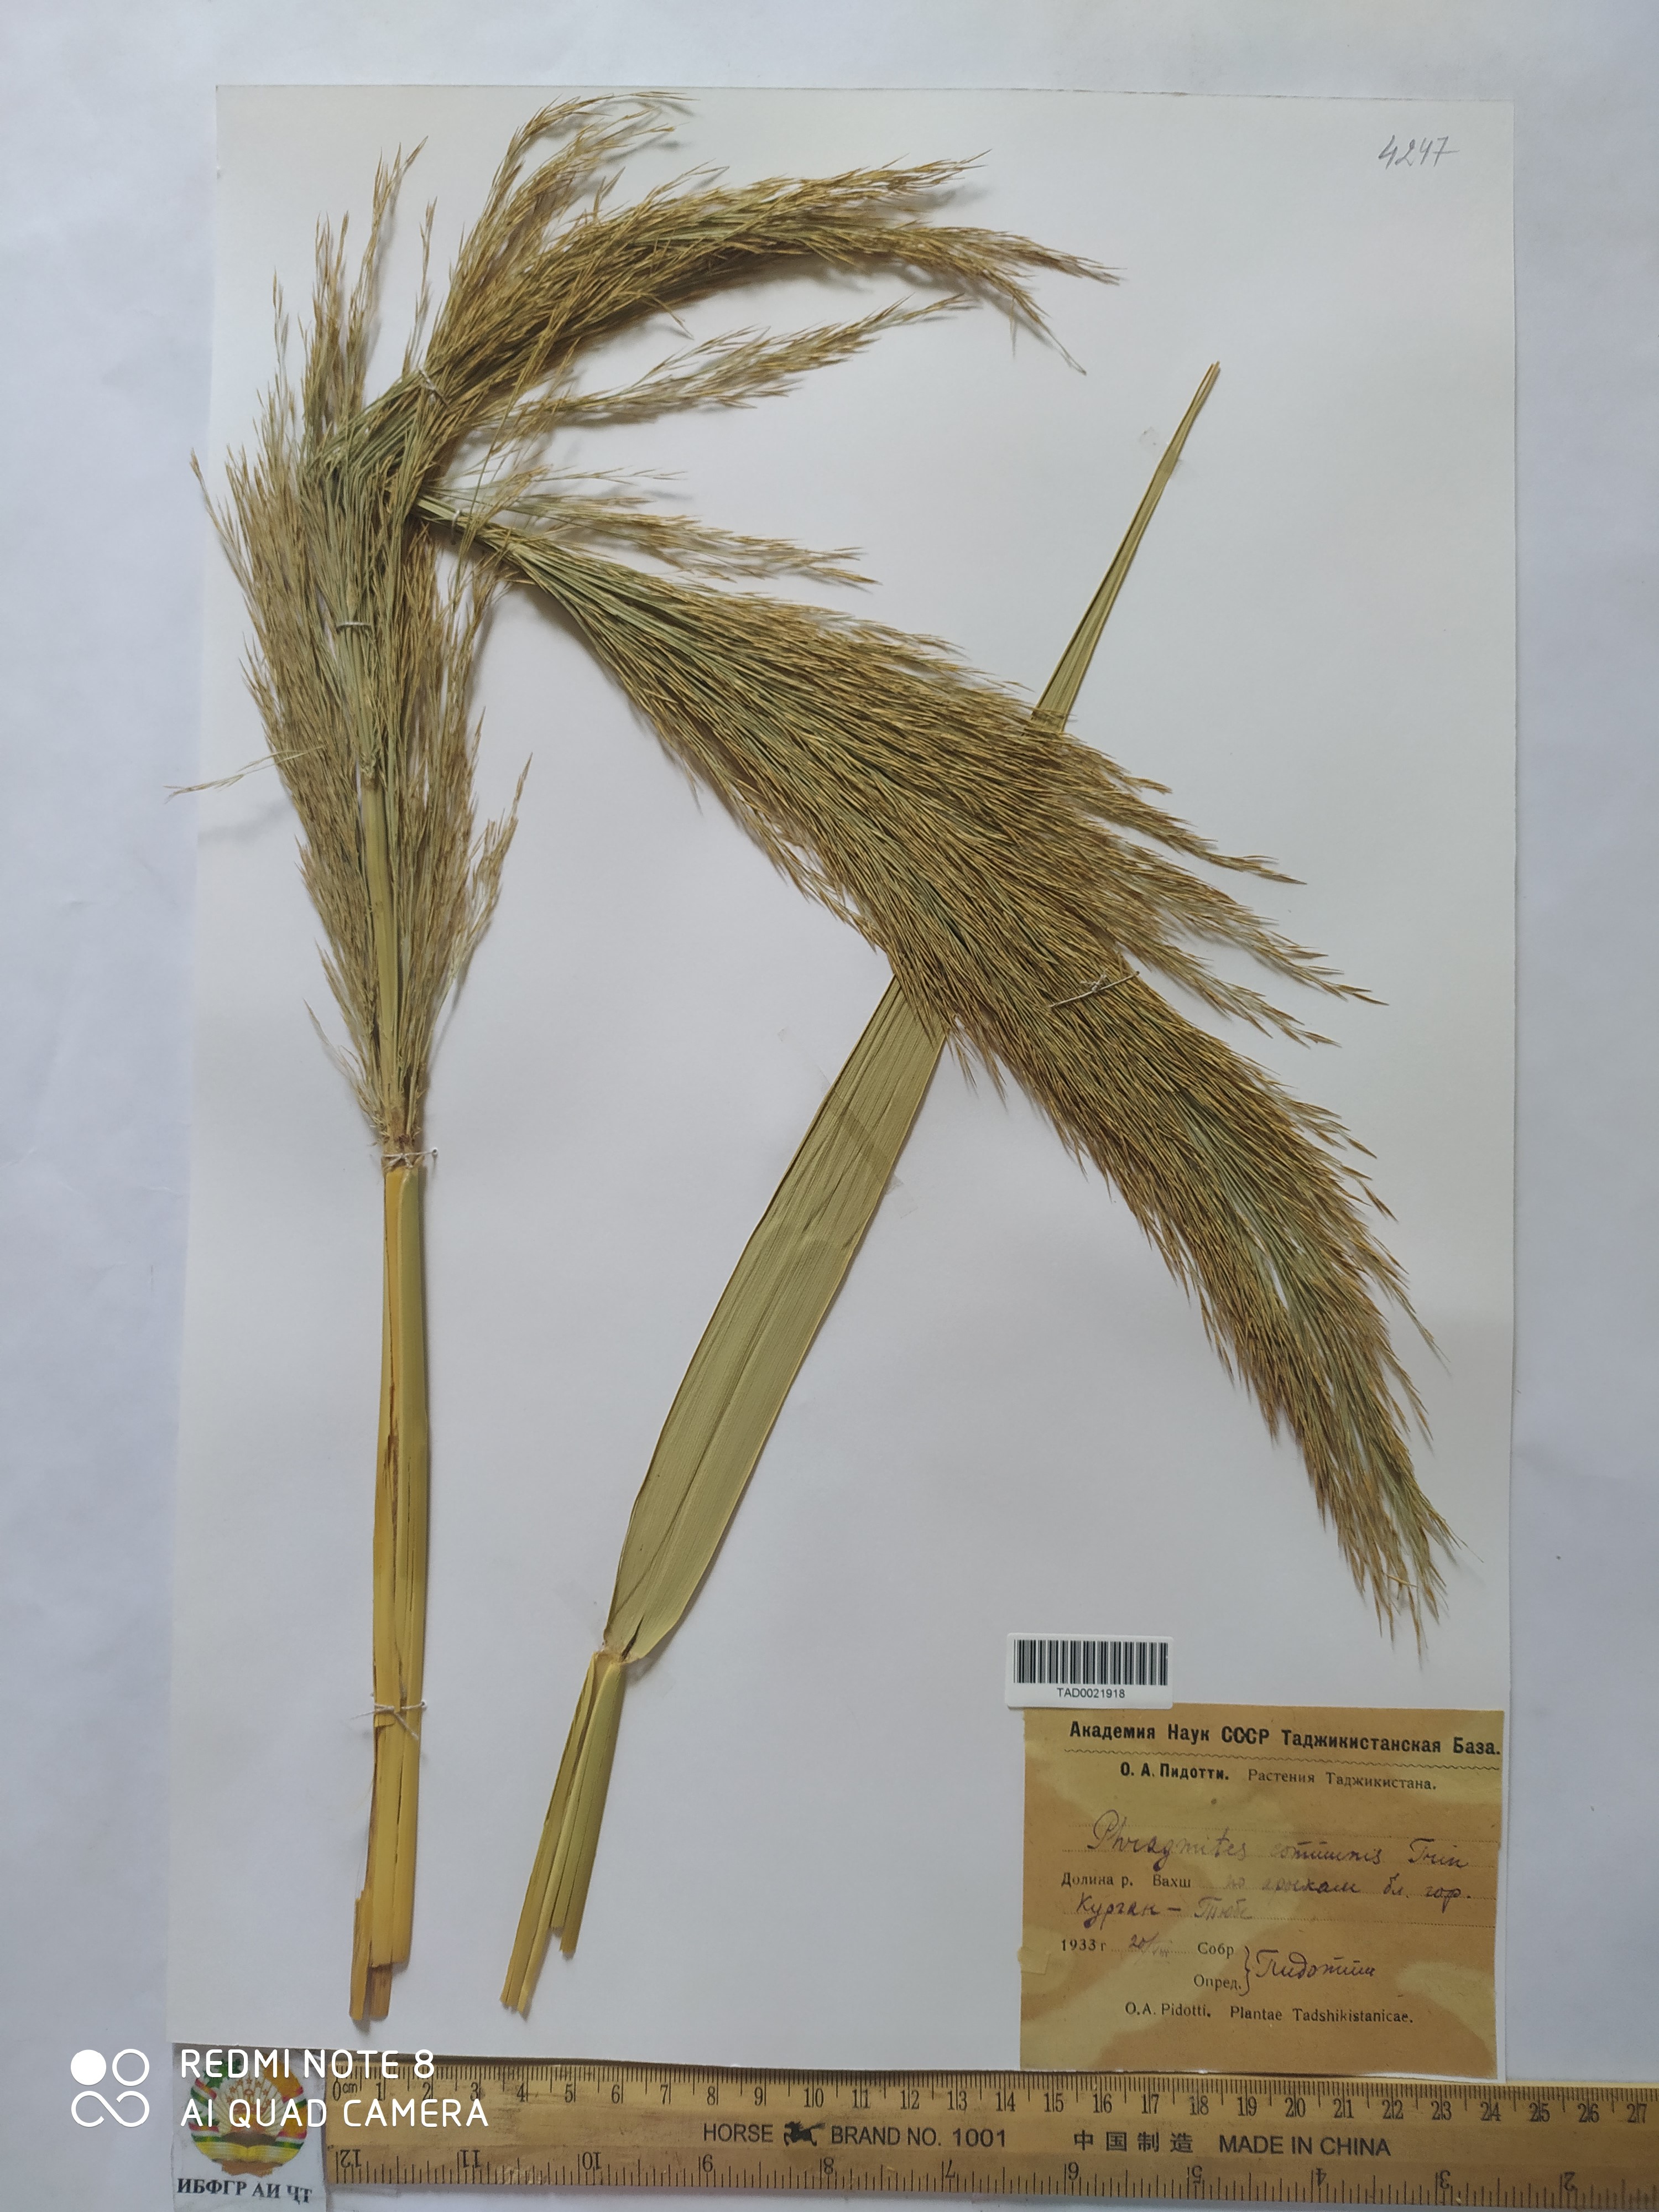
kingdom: Plantae
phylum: Tracheophyta
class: Liliopsida
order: Poales
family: Poaceae
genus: Phragmites
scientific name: Phragmites australis
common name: Common reed
